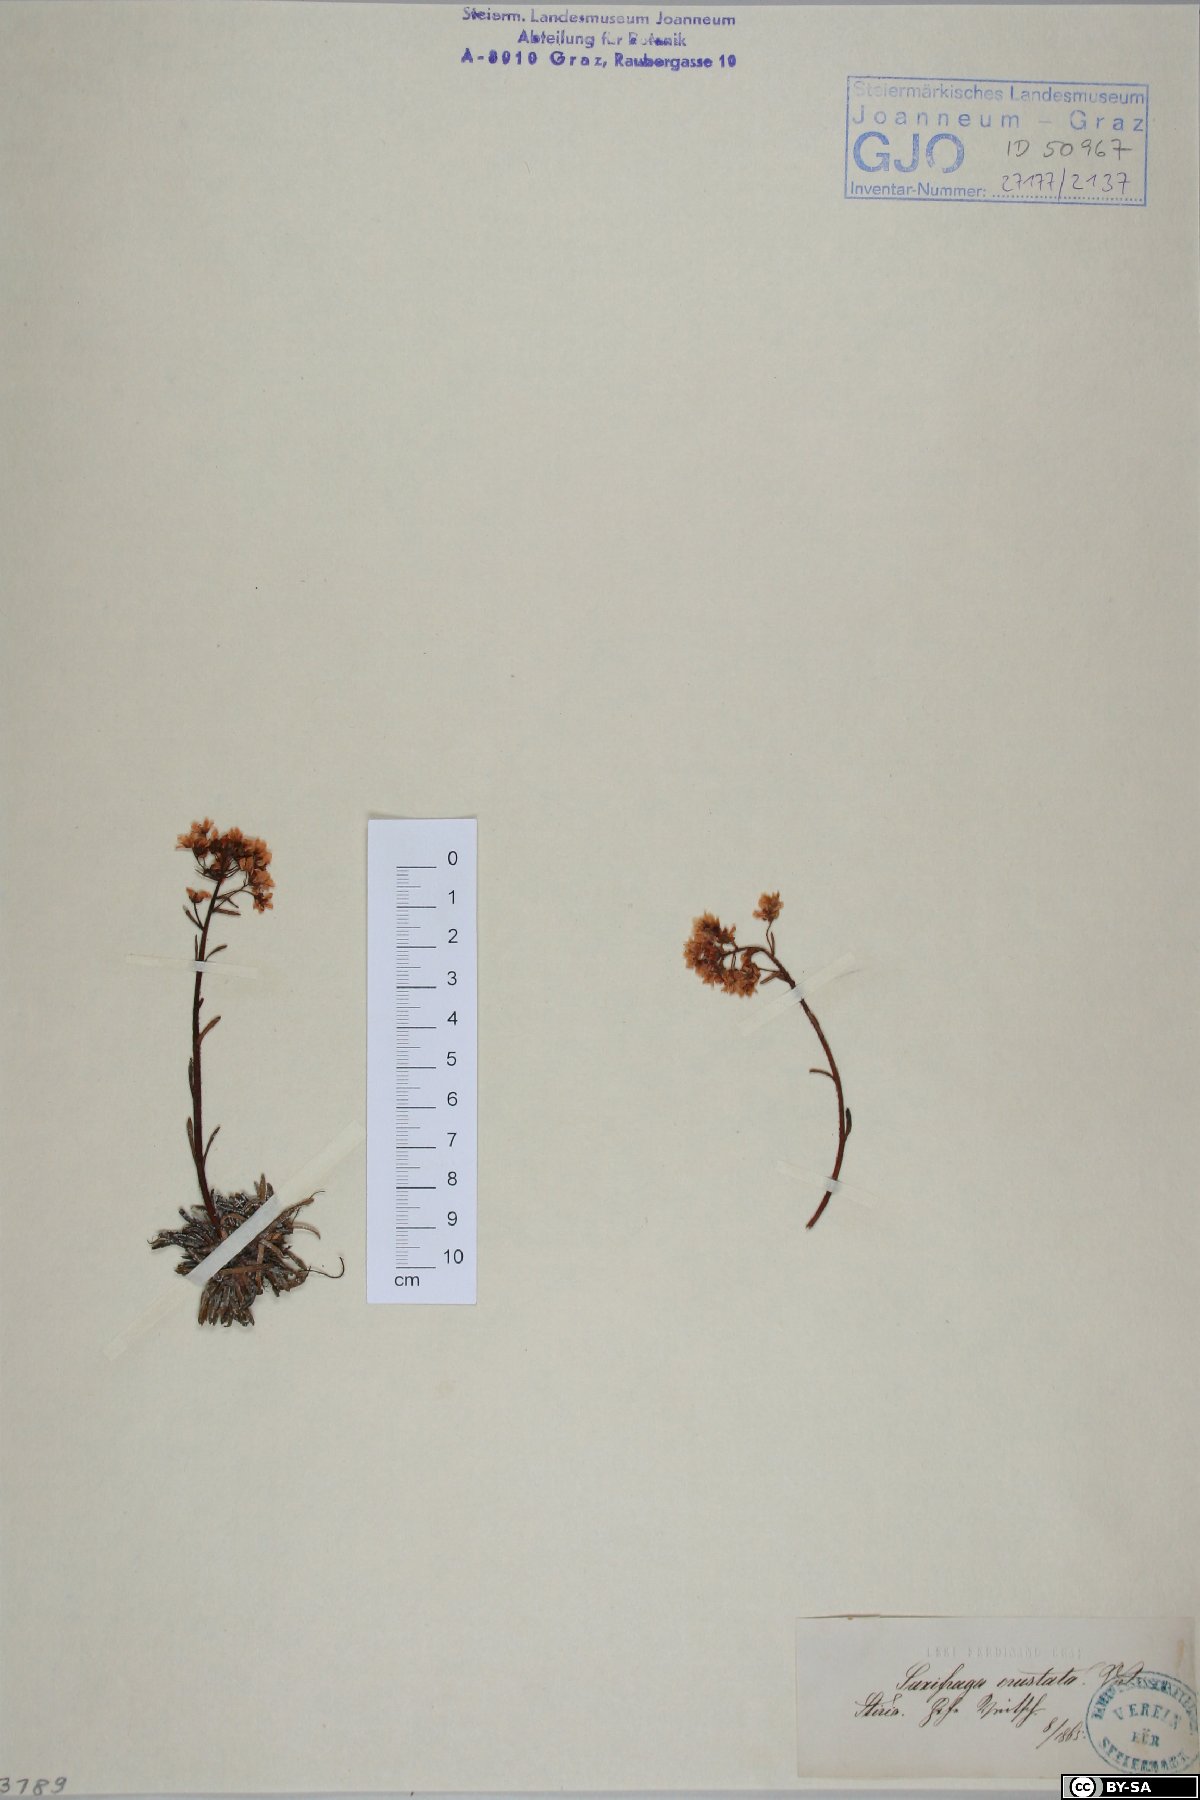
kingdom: Plantae
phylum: Tracheophyta
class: Magnoliopsida
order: Saxifragales
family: Saxifragaceae
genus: Saxifraga
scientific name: Saxifraga crustata
